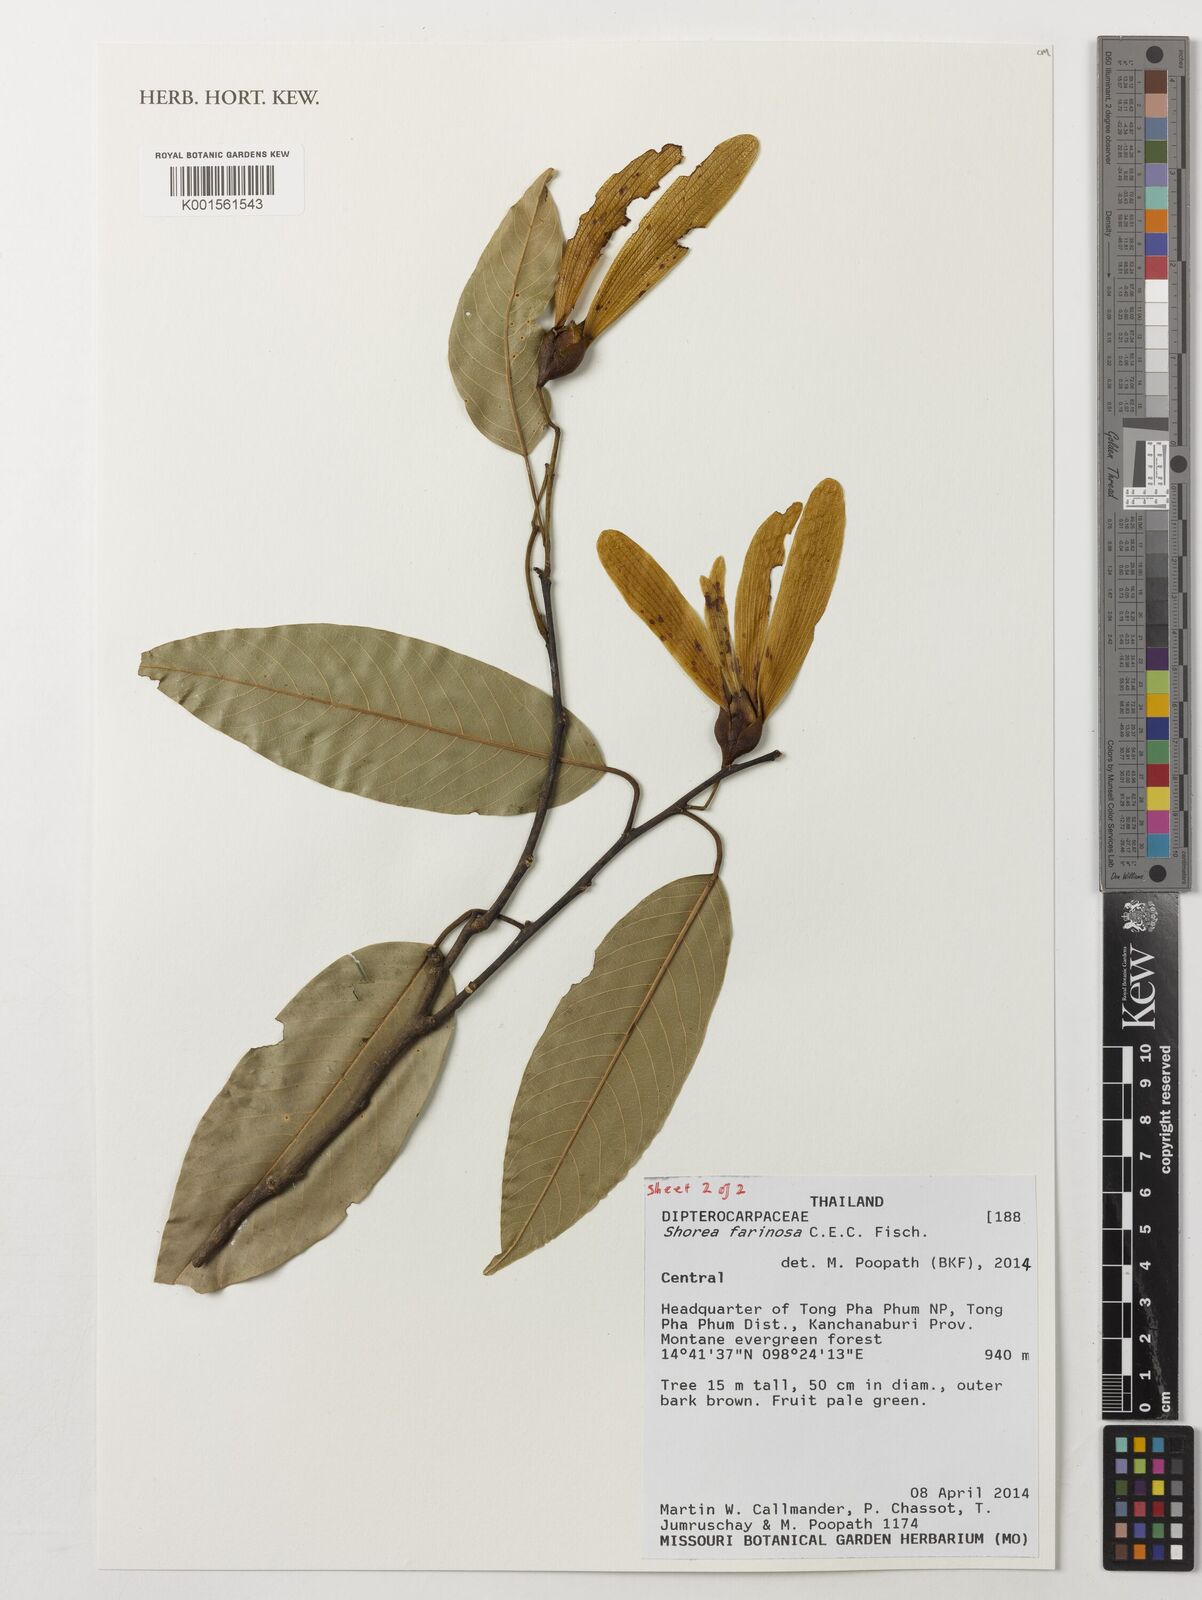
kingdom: Plantae
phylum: Tracheophyta
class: Magnoliopsida
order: Malvales
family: Dipterocarpaceae
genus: Anthoshorea
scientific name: Anthoshorea farinosa
